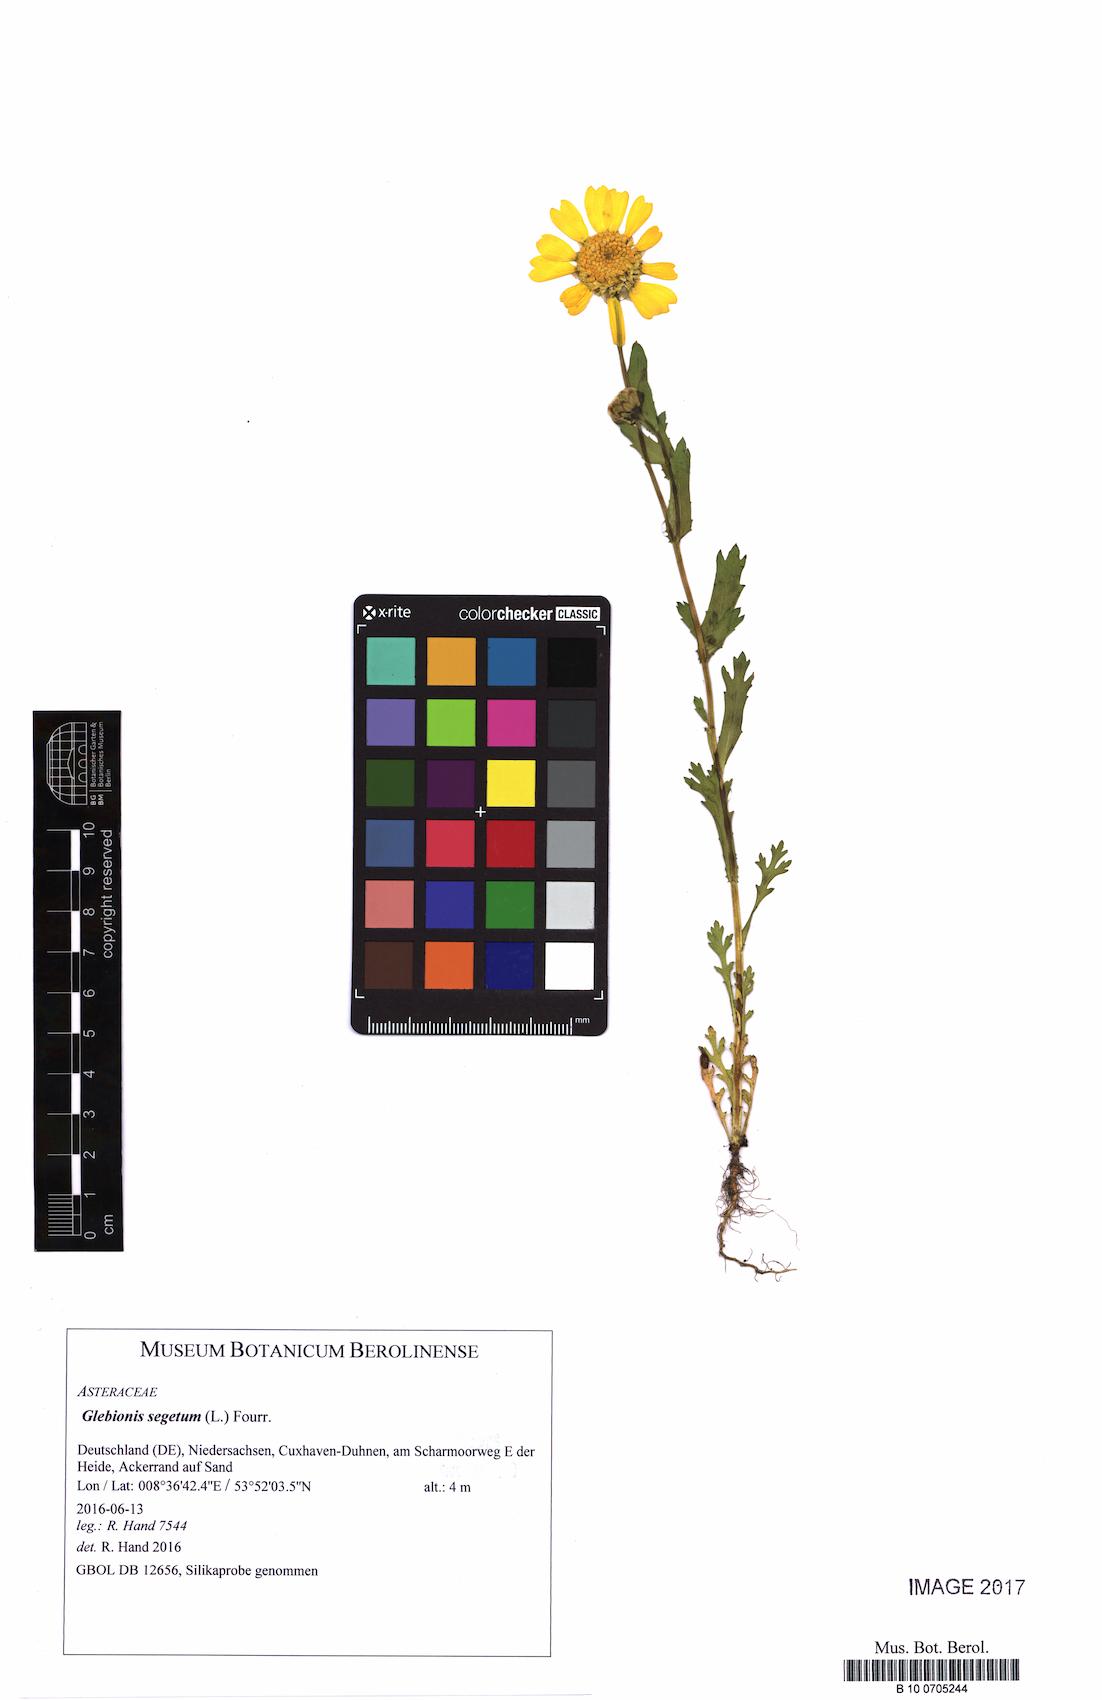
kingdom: Plantae
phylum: Tracheophyta
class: Magnoliopsida
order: Asterales
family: Asteraceae
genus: Glebionis
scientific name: Glebionis segetum
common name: Corndaisy
